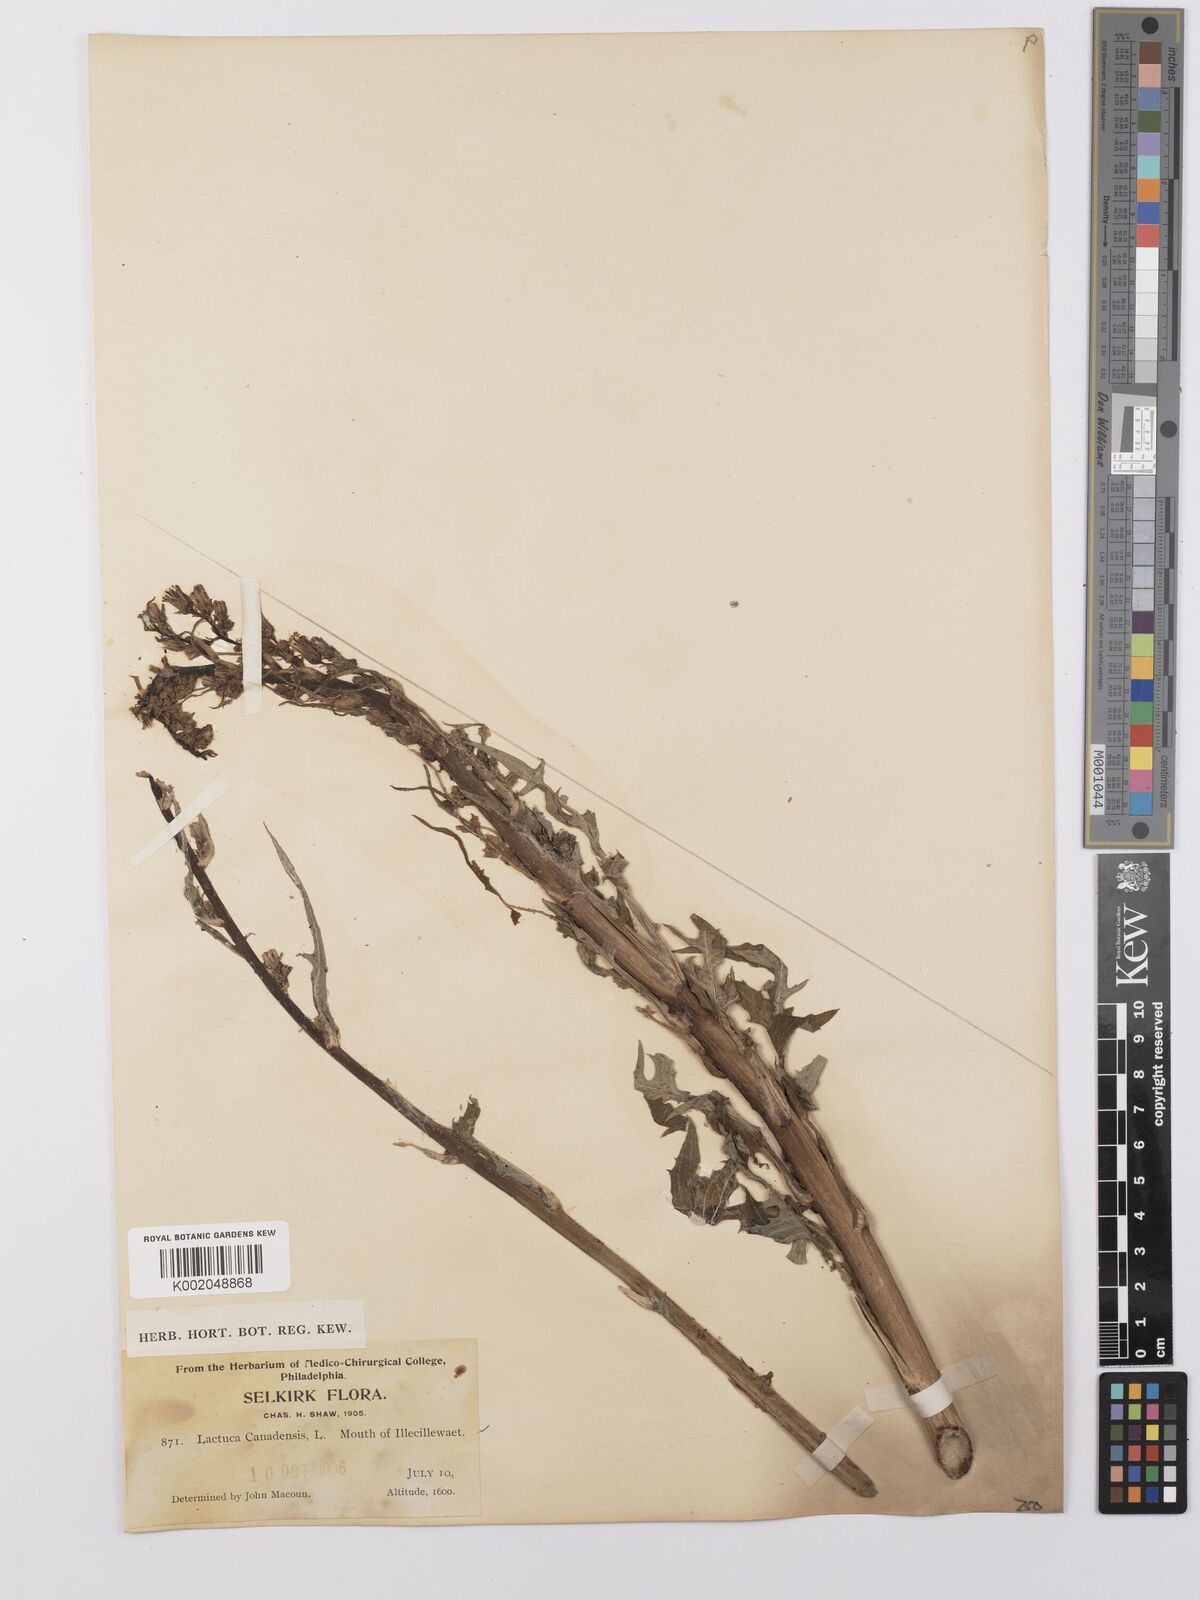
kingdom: Plantae
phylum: Tracheophyta
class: Magnoliopsida
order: Asterales
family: Asteraceae
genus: Lactuca
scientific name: Lactuca canadensis
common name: Canada lettuce
